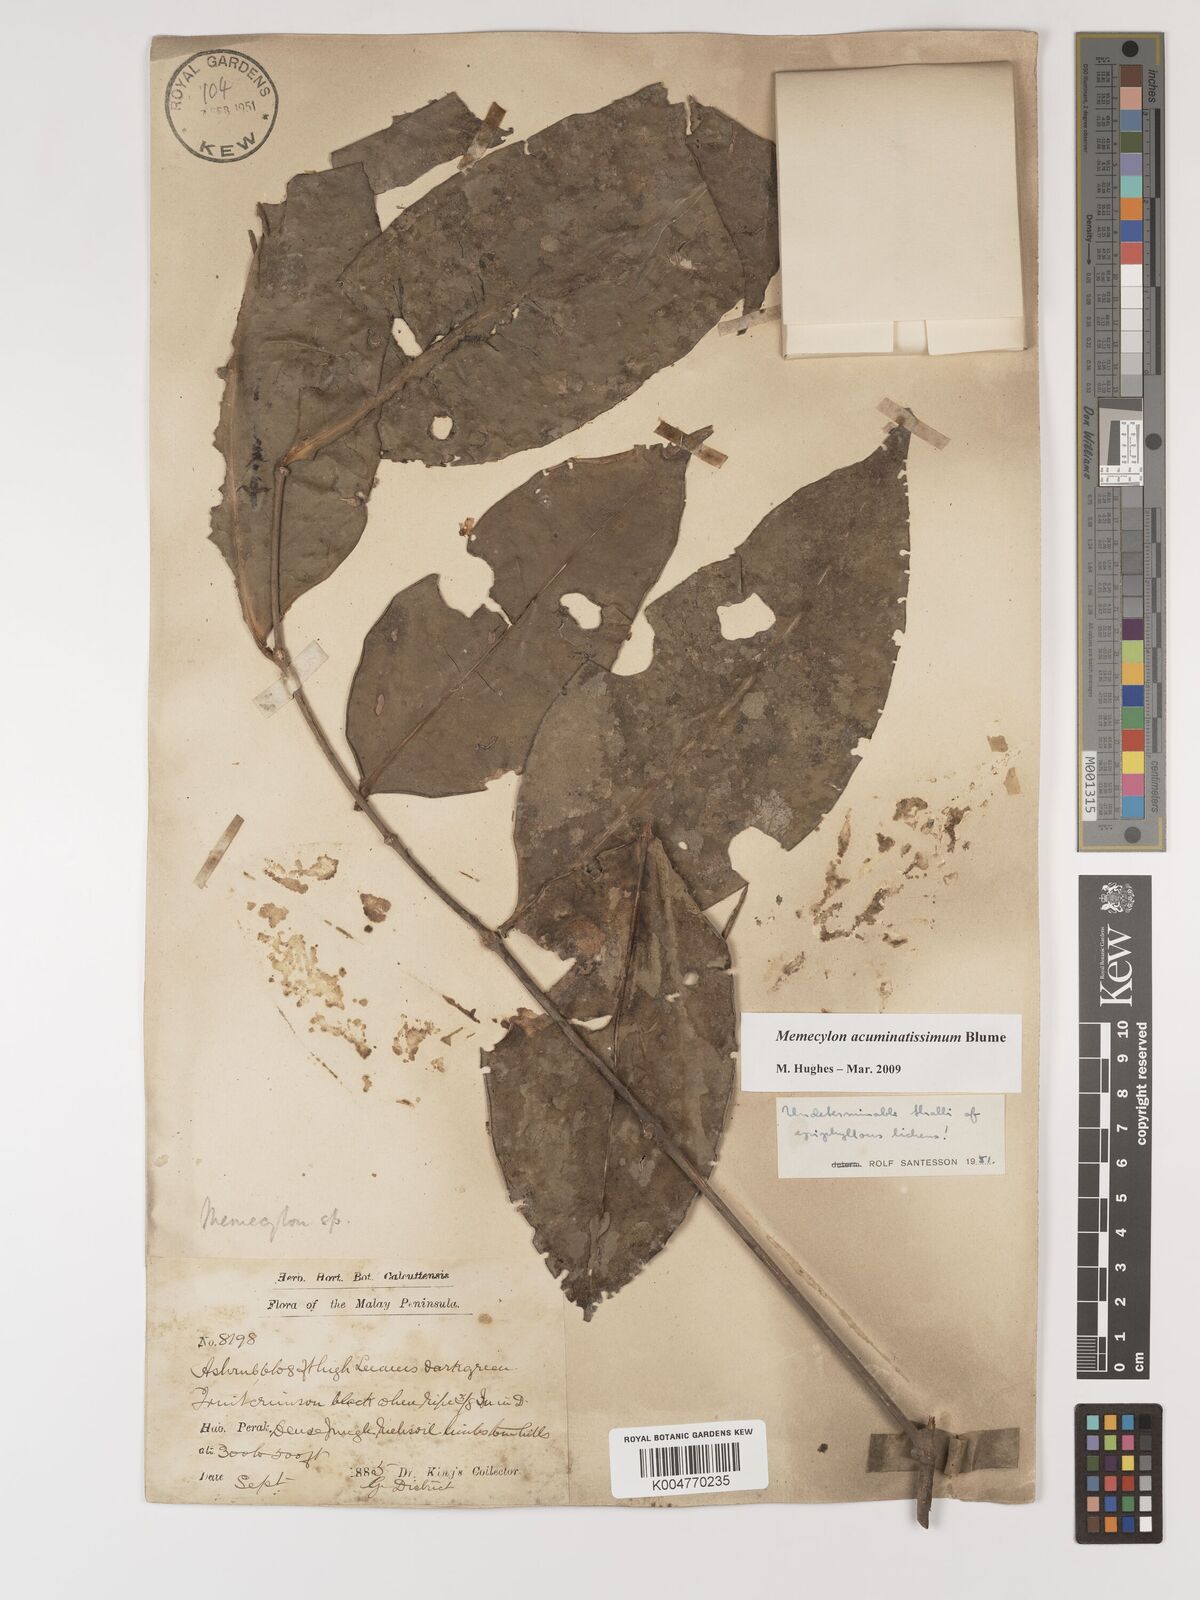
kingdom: Plantae
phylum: Tracheophyta
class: Magnoliopsida
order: Myrtales
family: Melastomataceae
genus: Memecylon
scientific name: Memecylon acuminatissimum
